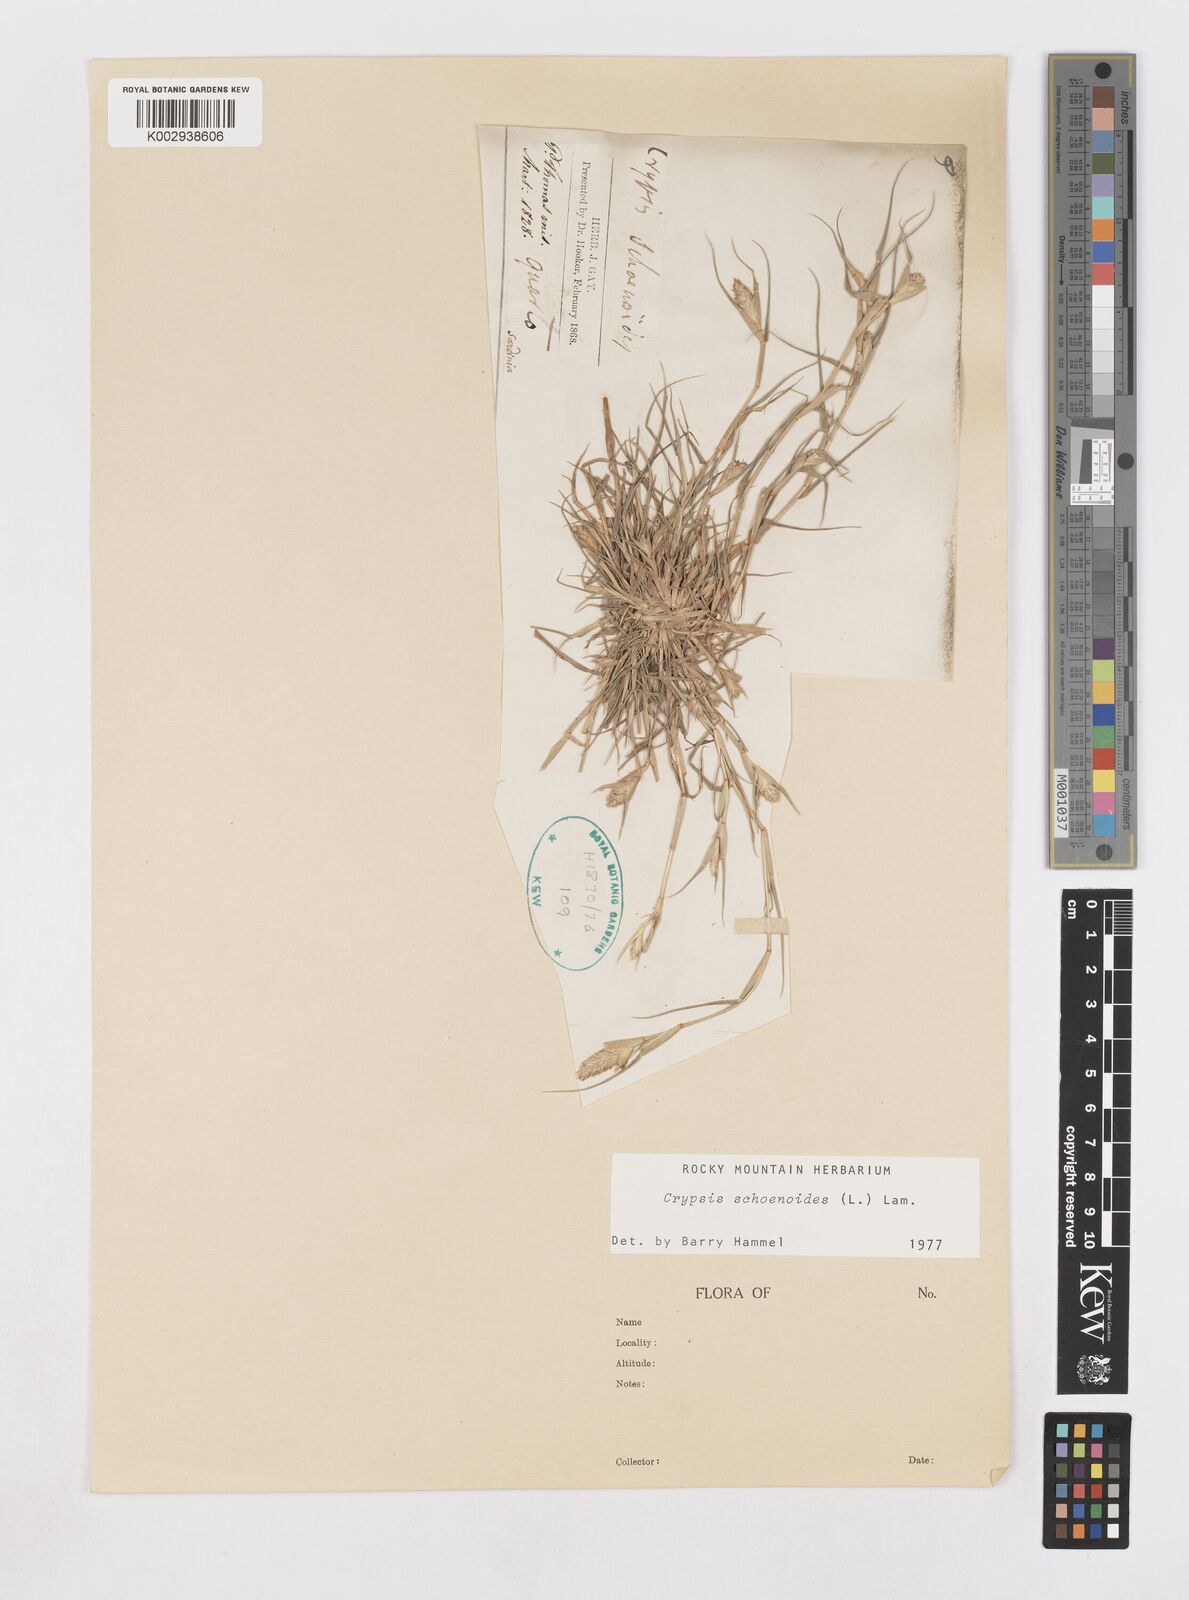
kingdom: Plantae
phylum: Tracheophyta
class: Liliopsida
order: Poales
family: Poaceae
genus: Sporobolus
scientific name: Sporobolus schoenoides
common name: Rush-like timothy
